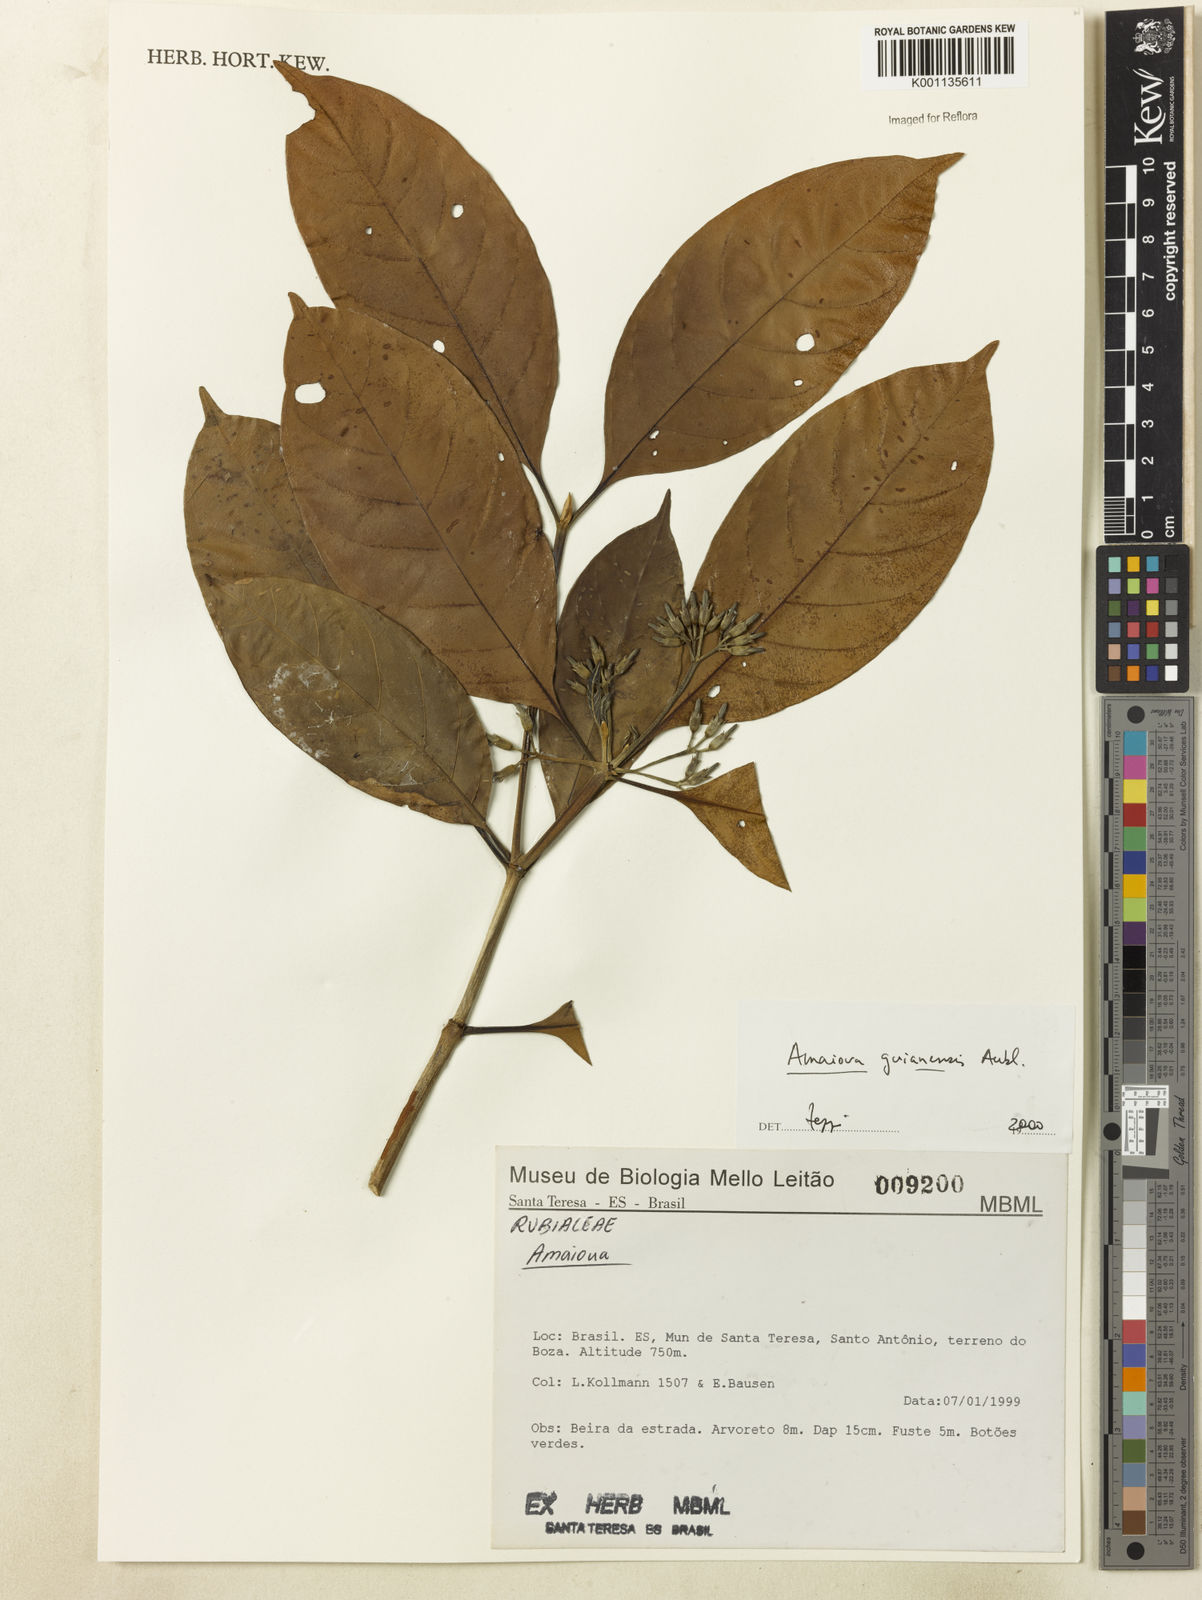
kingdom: Plantae
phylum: Tracheophyta
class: Magnoliopsida
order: Gentianales
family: Rubiaceae
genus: Amaioua
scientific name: Amaioua intermedia
